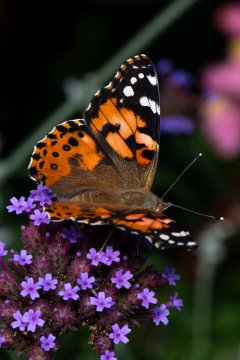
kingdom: Animalia
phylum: Arthropoda
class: Insecta
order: Lepidoptera
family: Nymphalidae
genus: Vanessa
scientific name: Vanessa cardui
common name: Painted Lady
